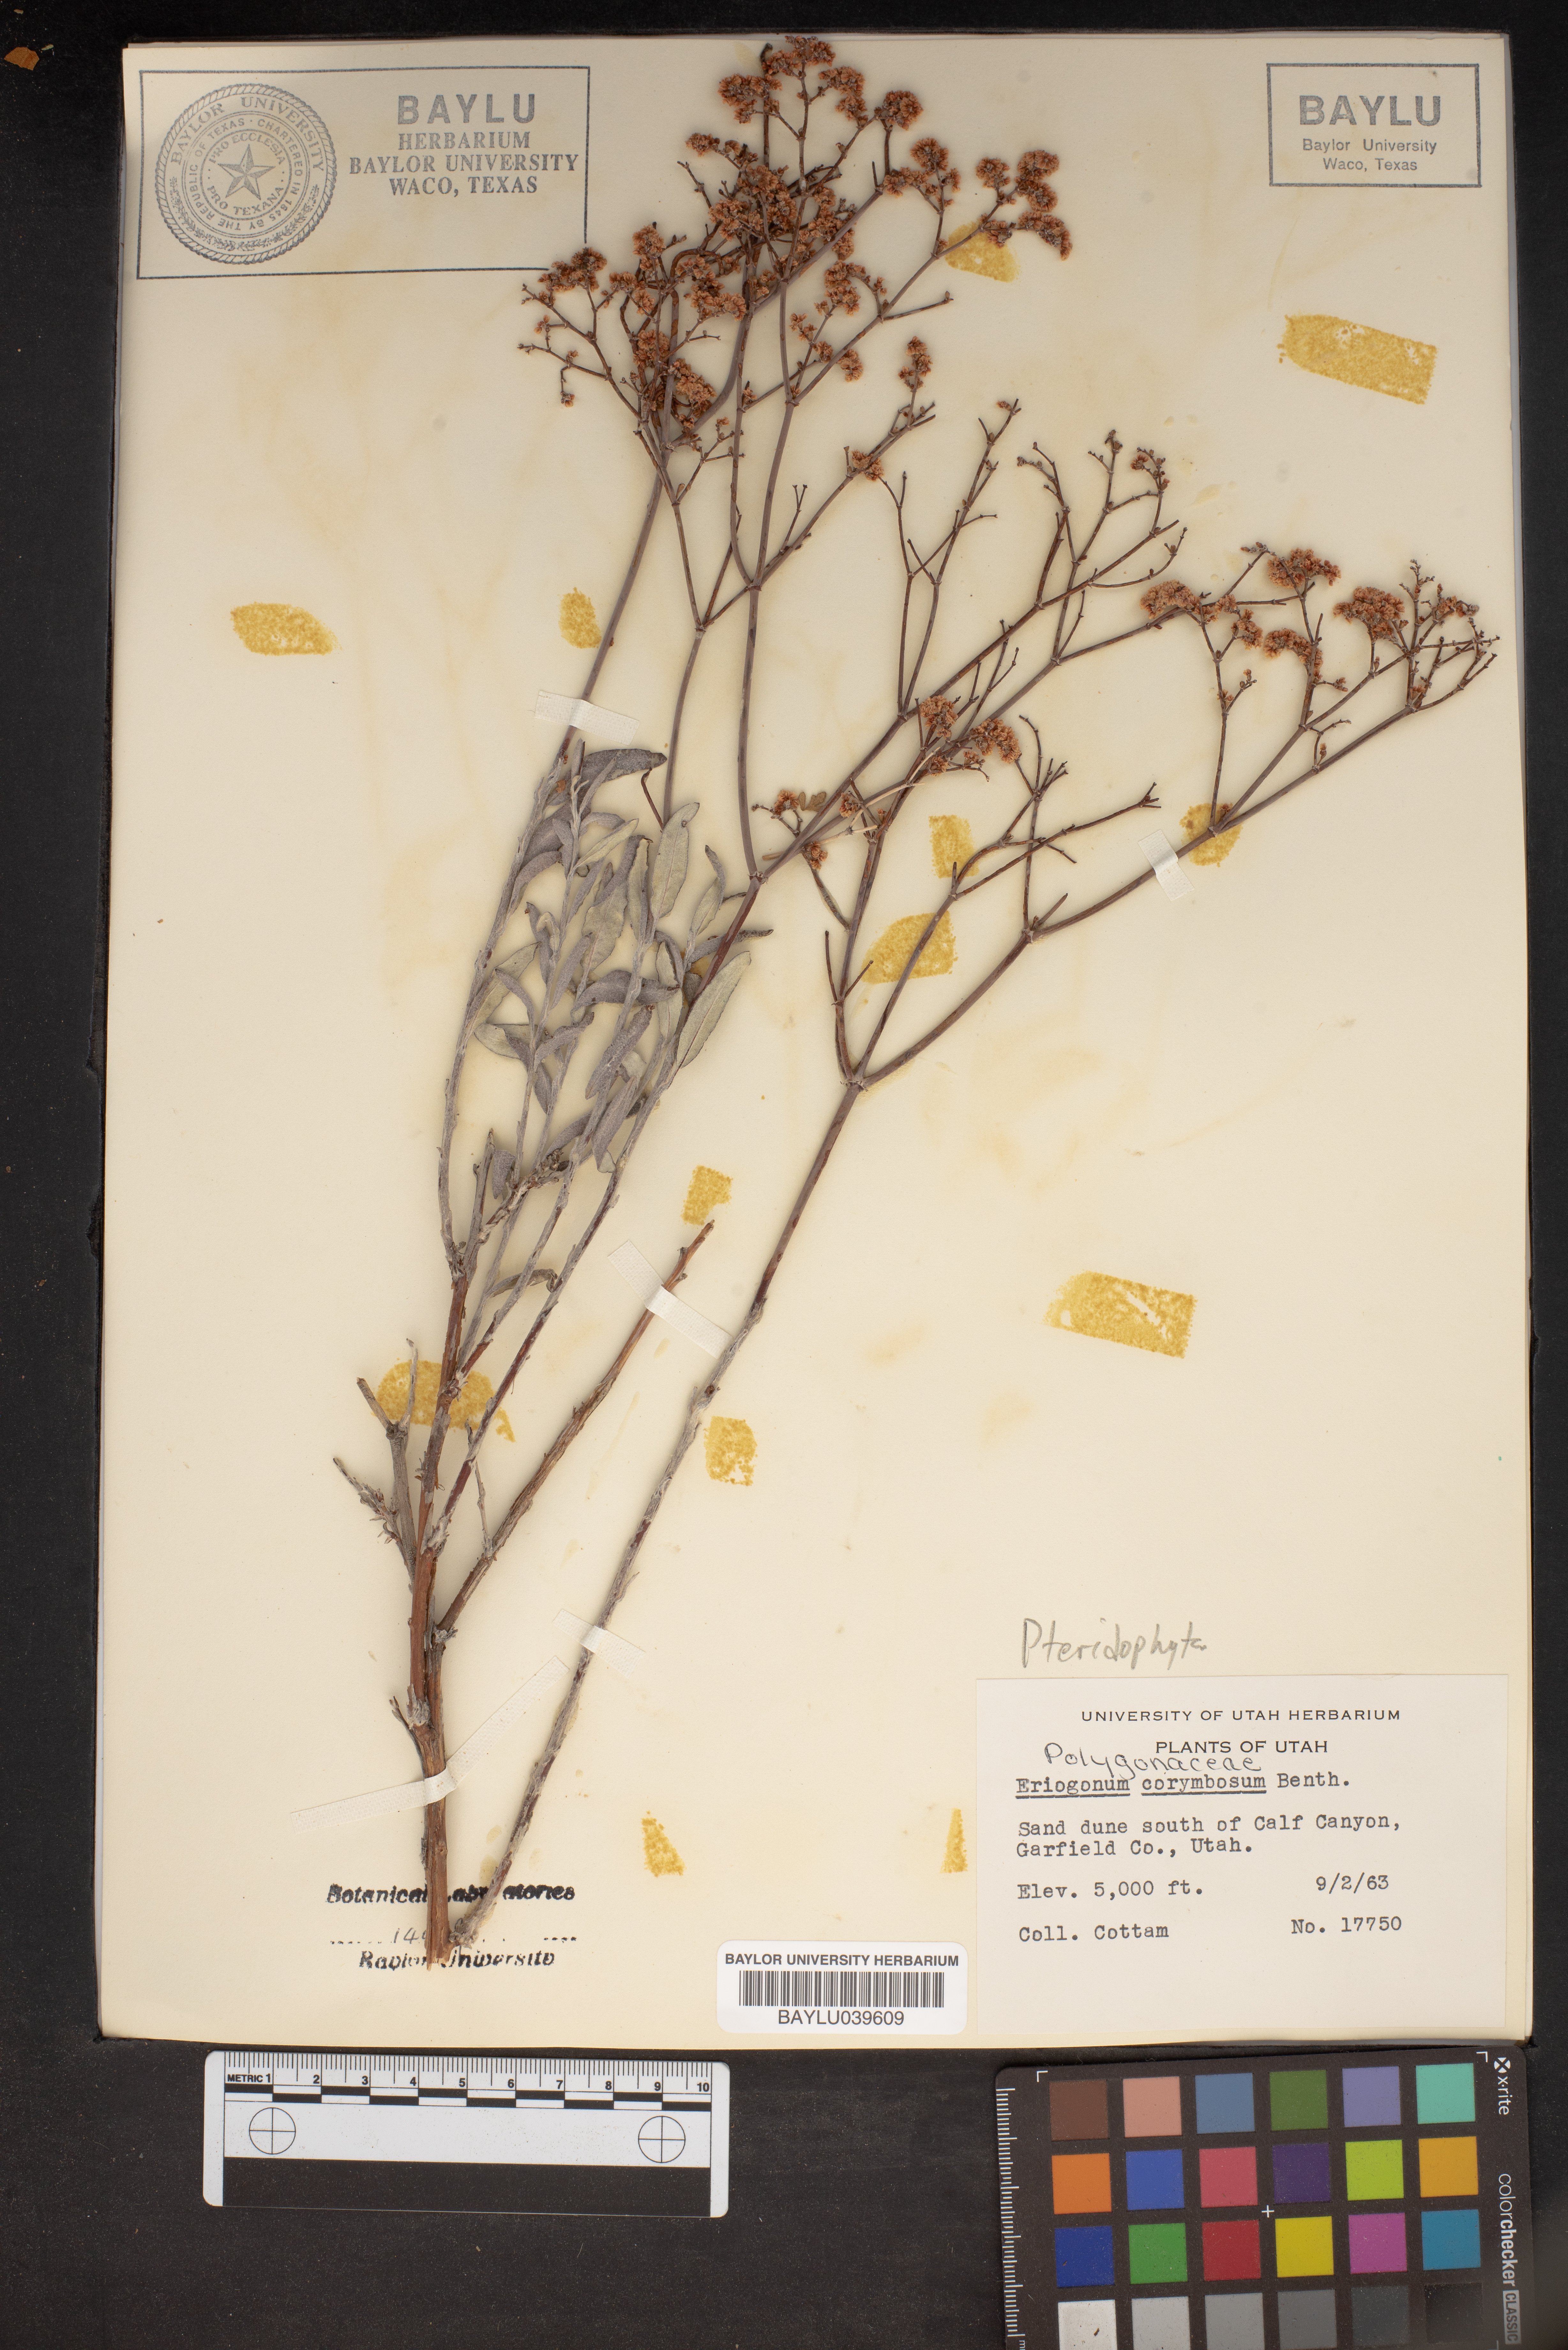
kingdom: Plantae
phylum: Tracheophyta
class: Magnoliopsida
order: Caryophyllales
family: Polygonaceae
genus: Eriogonum
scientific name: Eriogonum corymbosum
